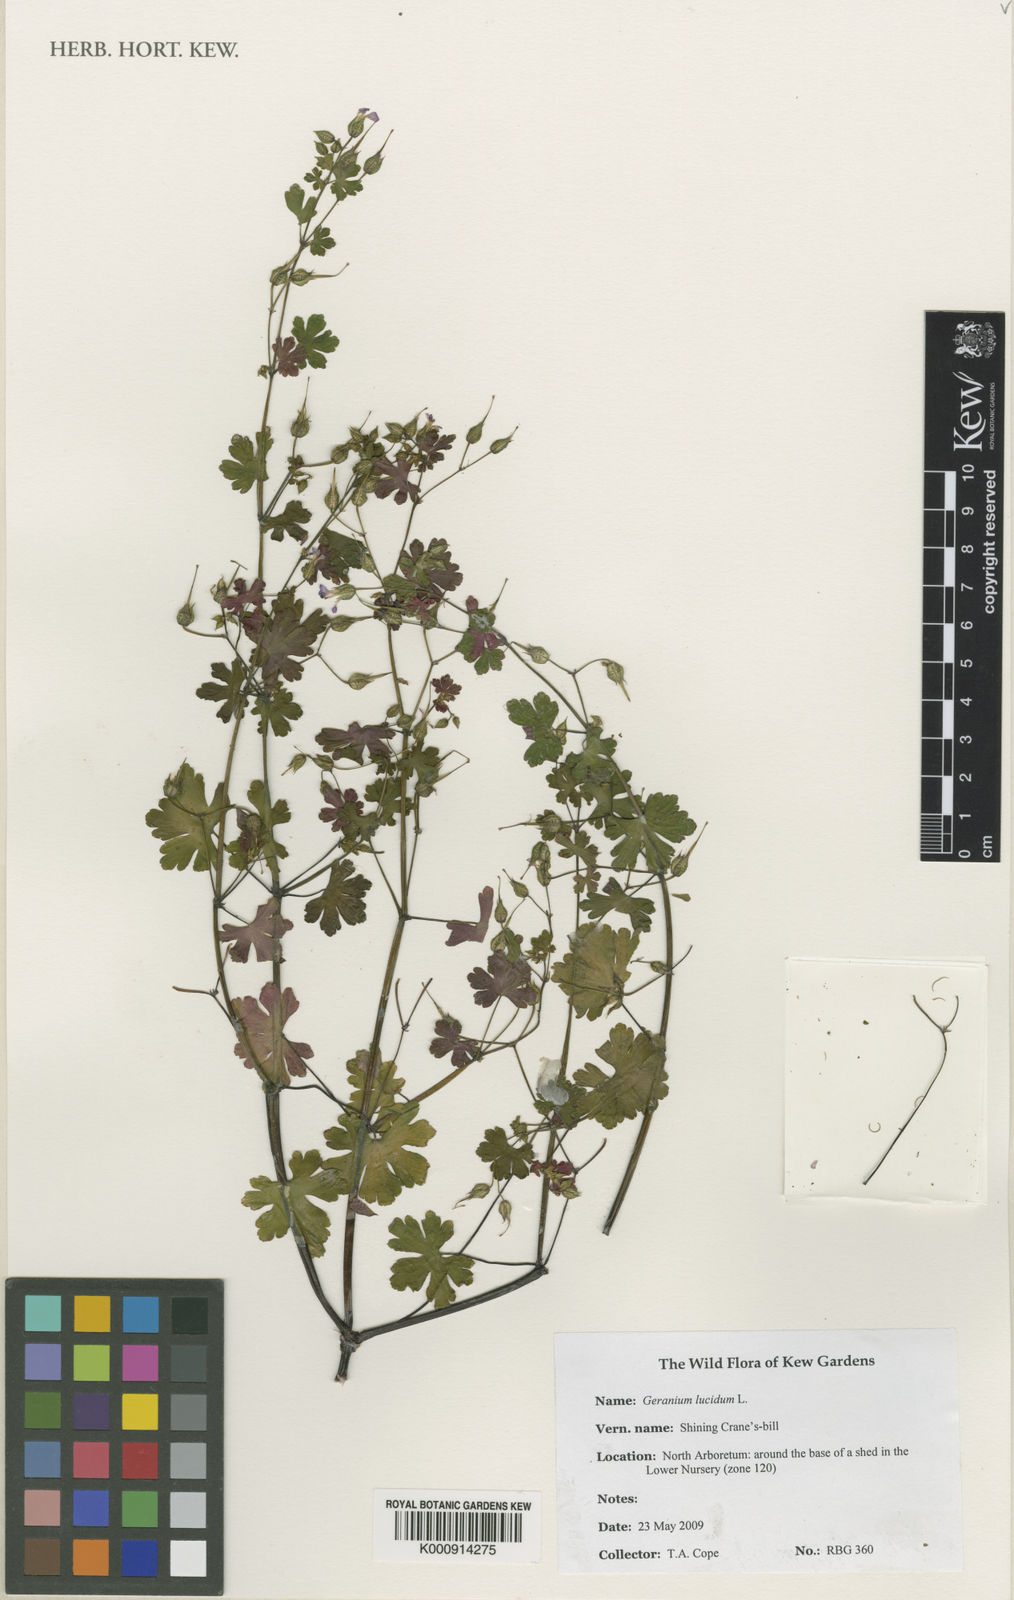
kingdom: Plantae
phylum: Tracheophyta
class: Magnoliopsida
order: Geraniales
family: Geraniaceae
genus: Geranium
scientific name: Geranium lucidum
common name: Shining crane's-bill
